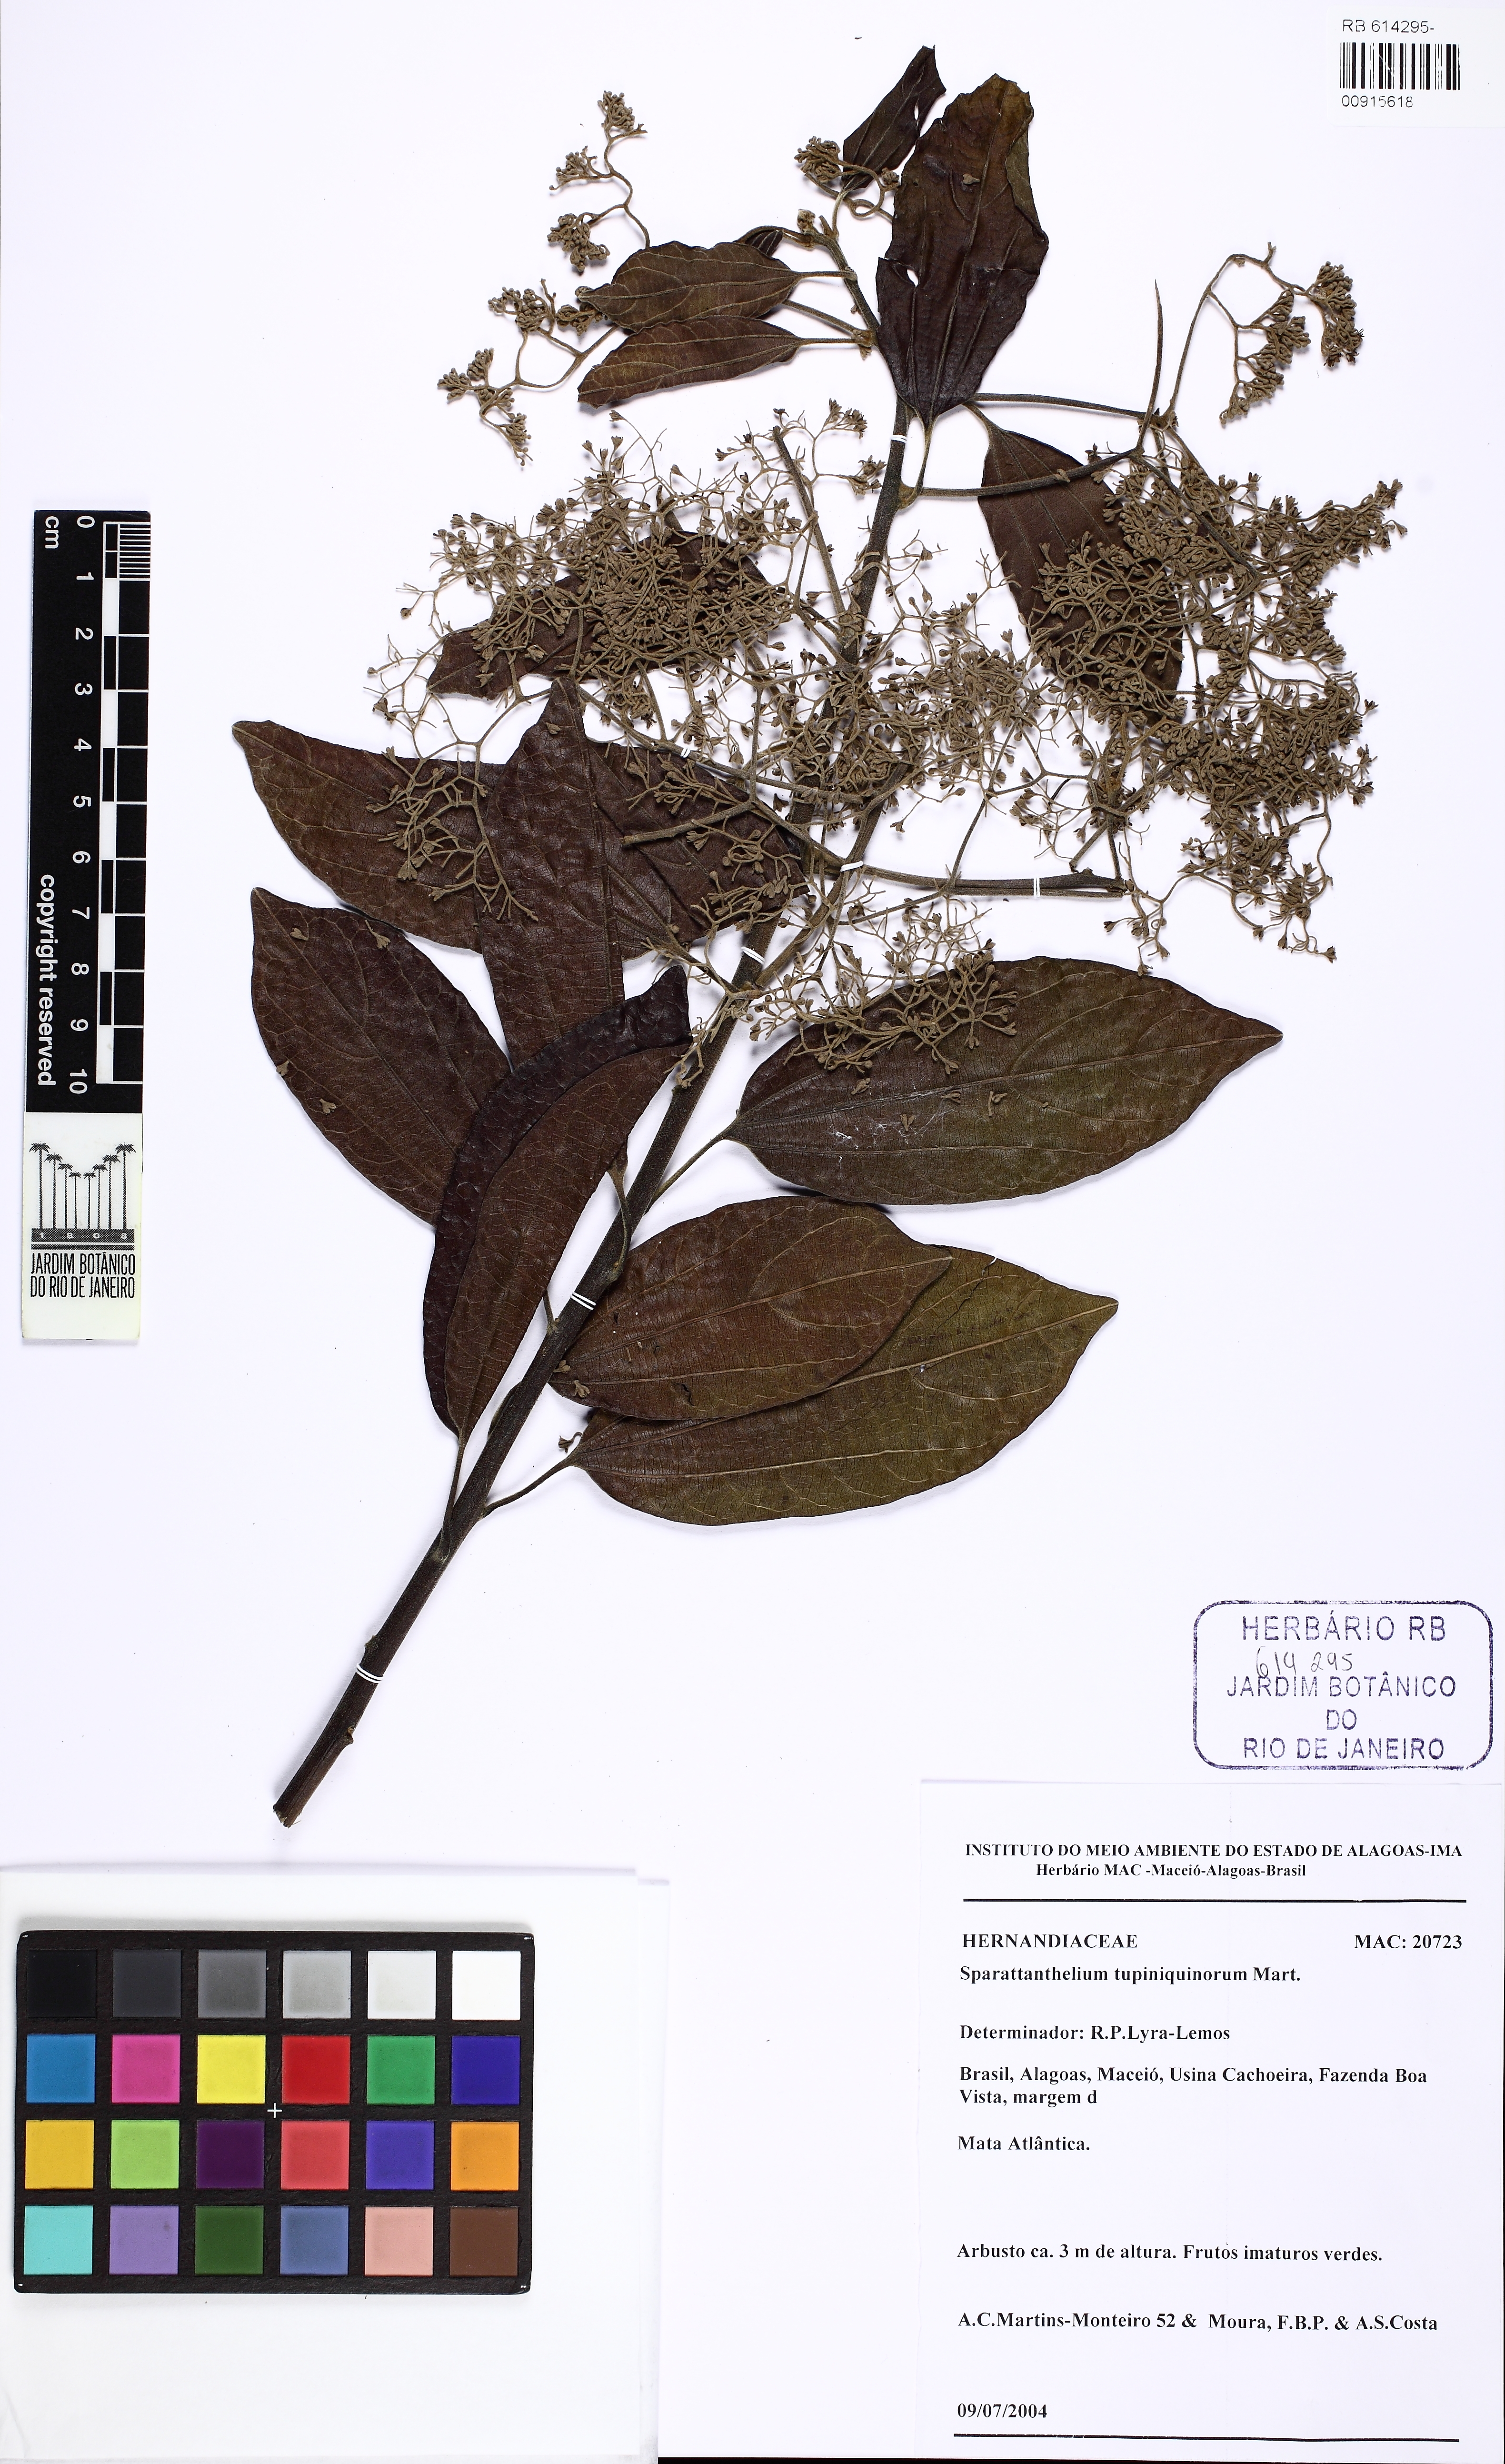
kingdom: Plantae
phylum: Tracheophyta
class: Magnoliopsida
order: Laurales
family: Hernandiaceae
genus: Sparattanthelium
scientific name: Sparattanthelium tupiniquinorum
